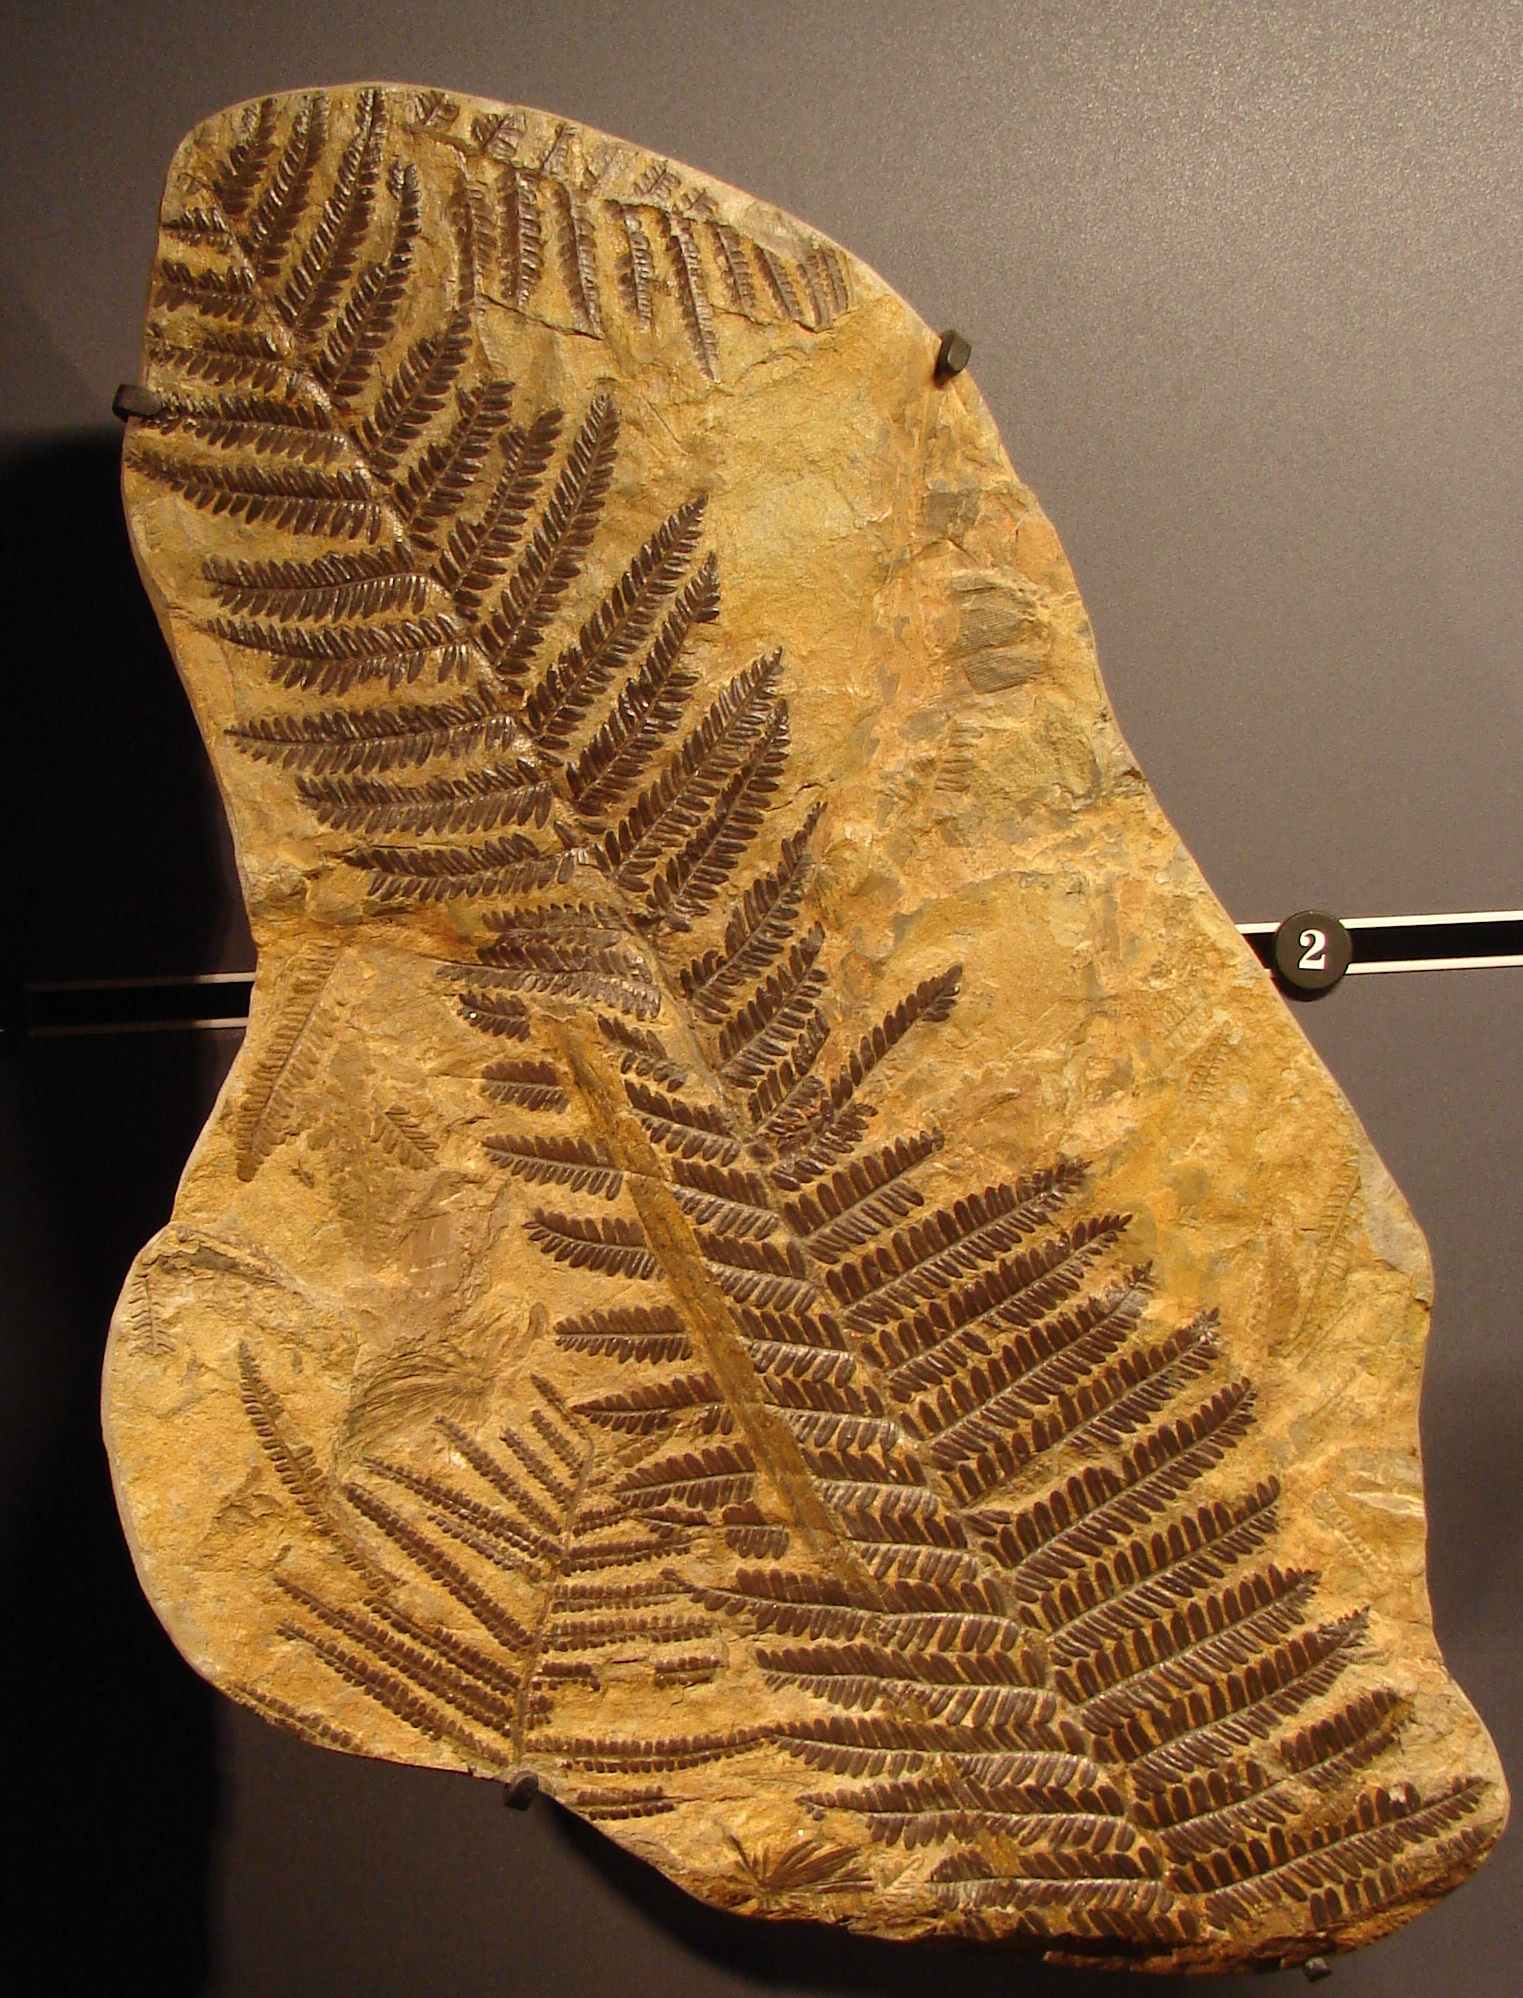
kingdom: Plantae
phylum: Tracheophyta
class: Polypodiopsida
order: Marattiales
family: Asterothecaceae
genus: Pecopteris
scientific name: Pecopteris
